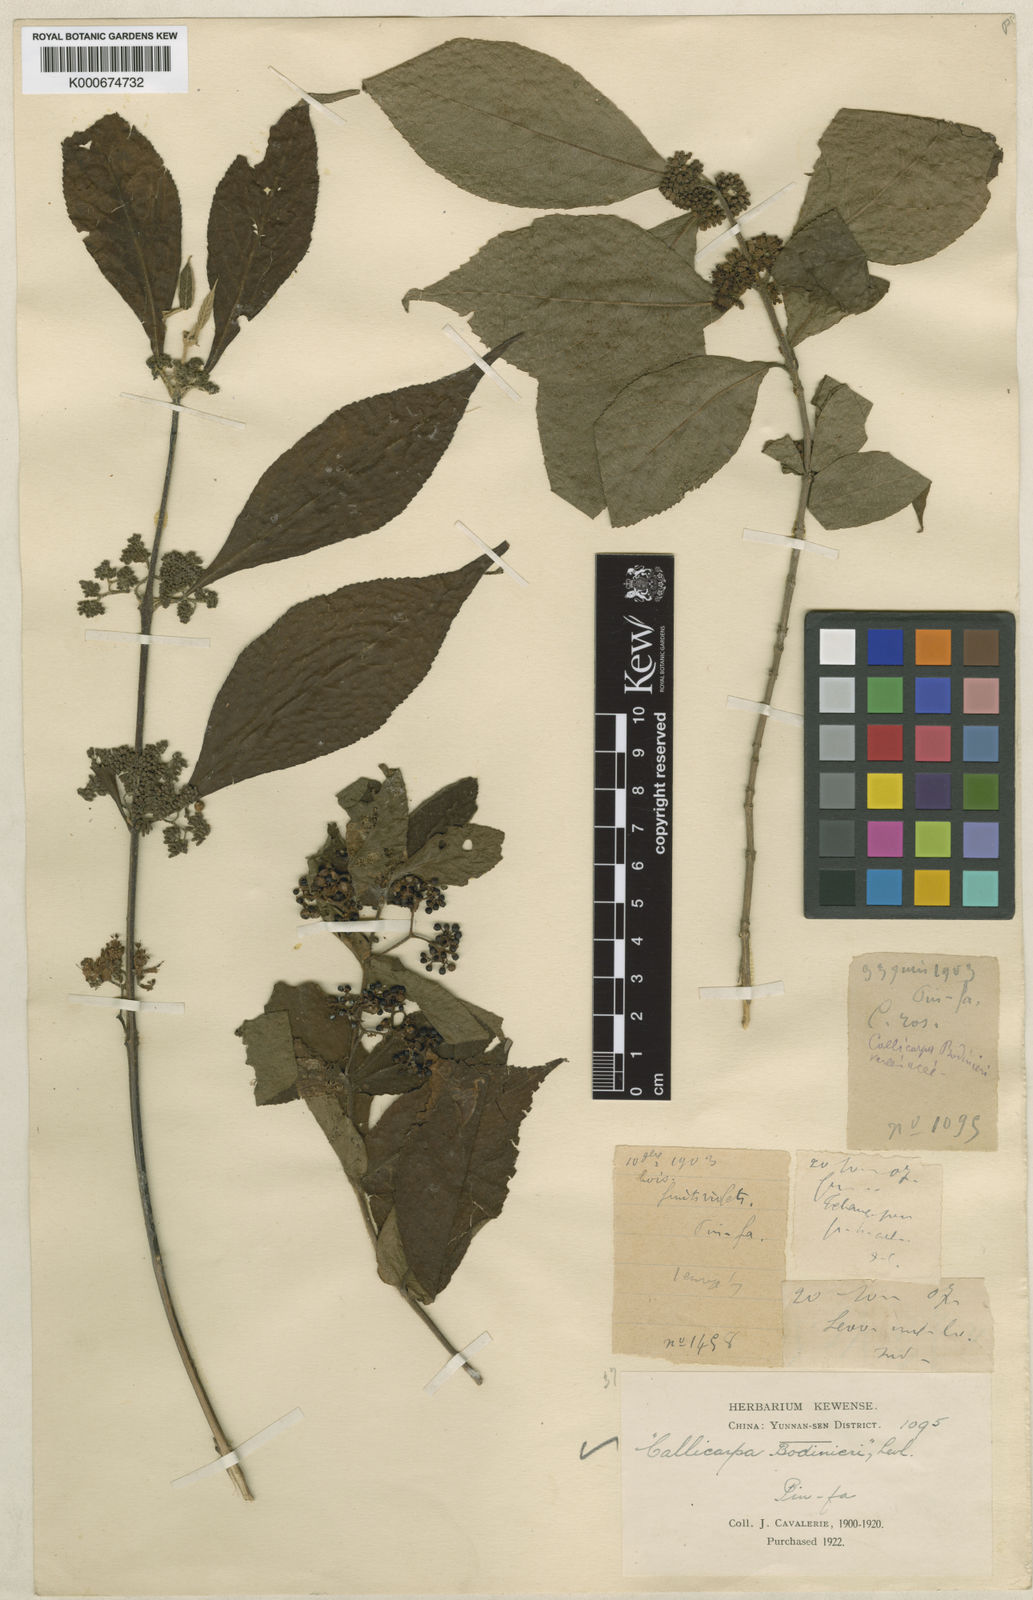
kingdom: Plantae
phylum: Tracheophyta
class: Magnoliopsida
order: Lamiales
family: Lamiaceae
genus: Callicarpa
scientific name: Callicarpa
